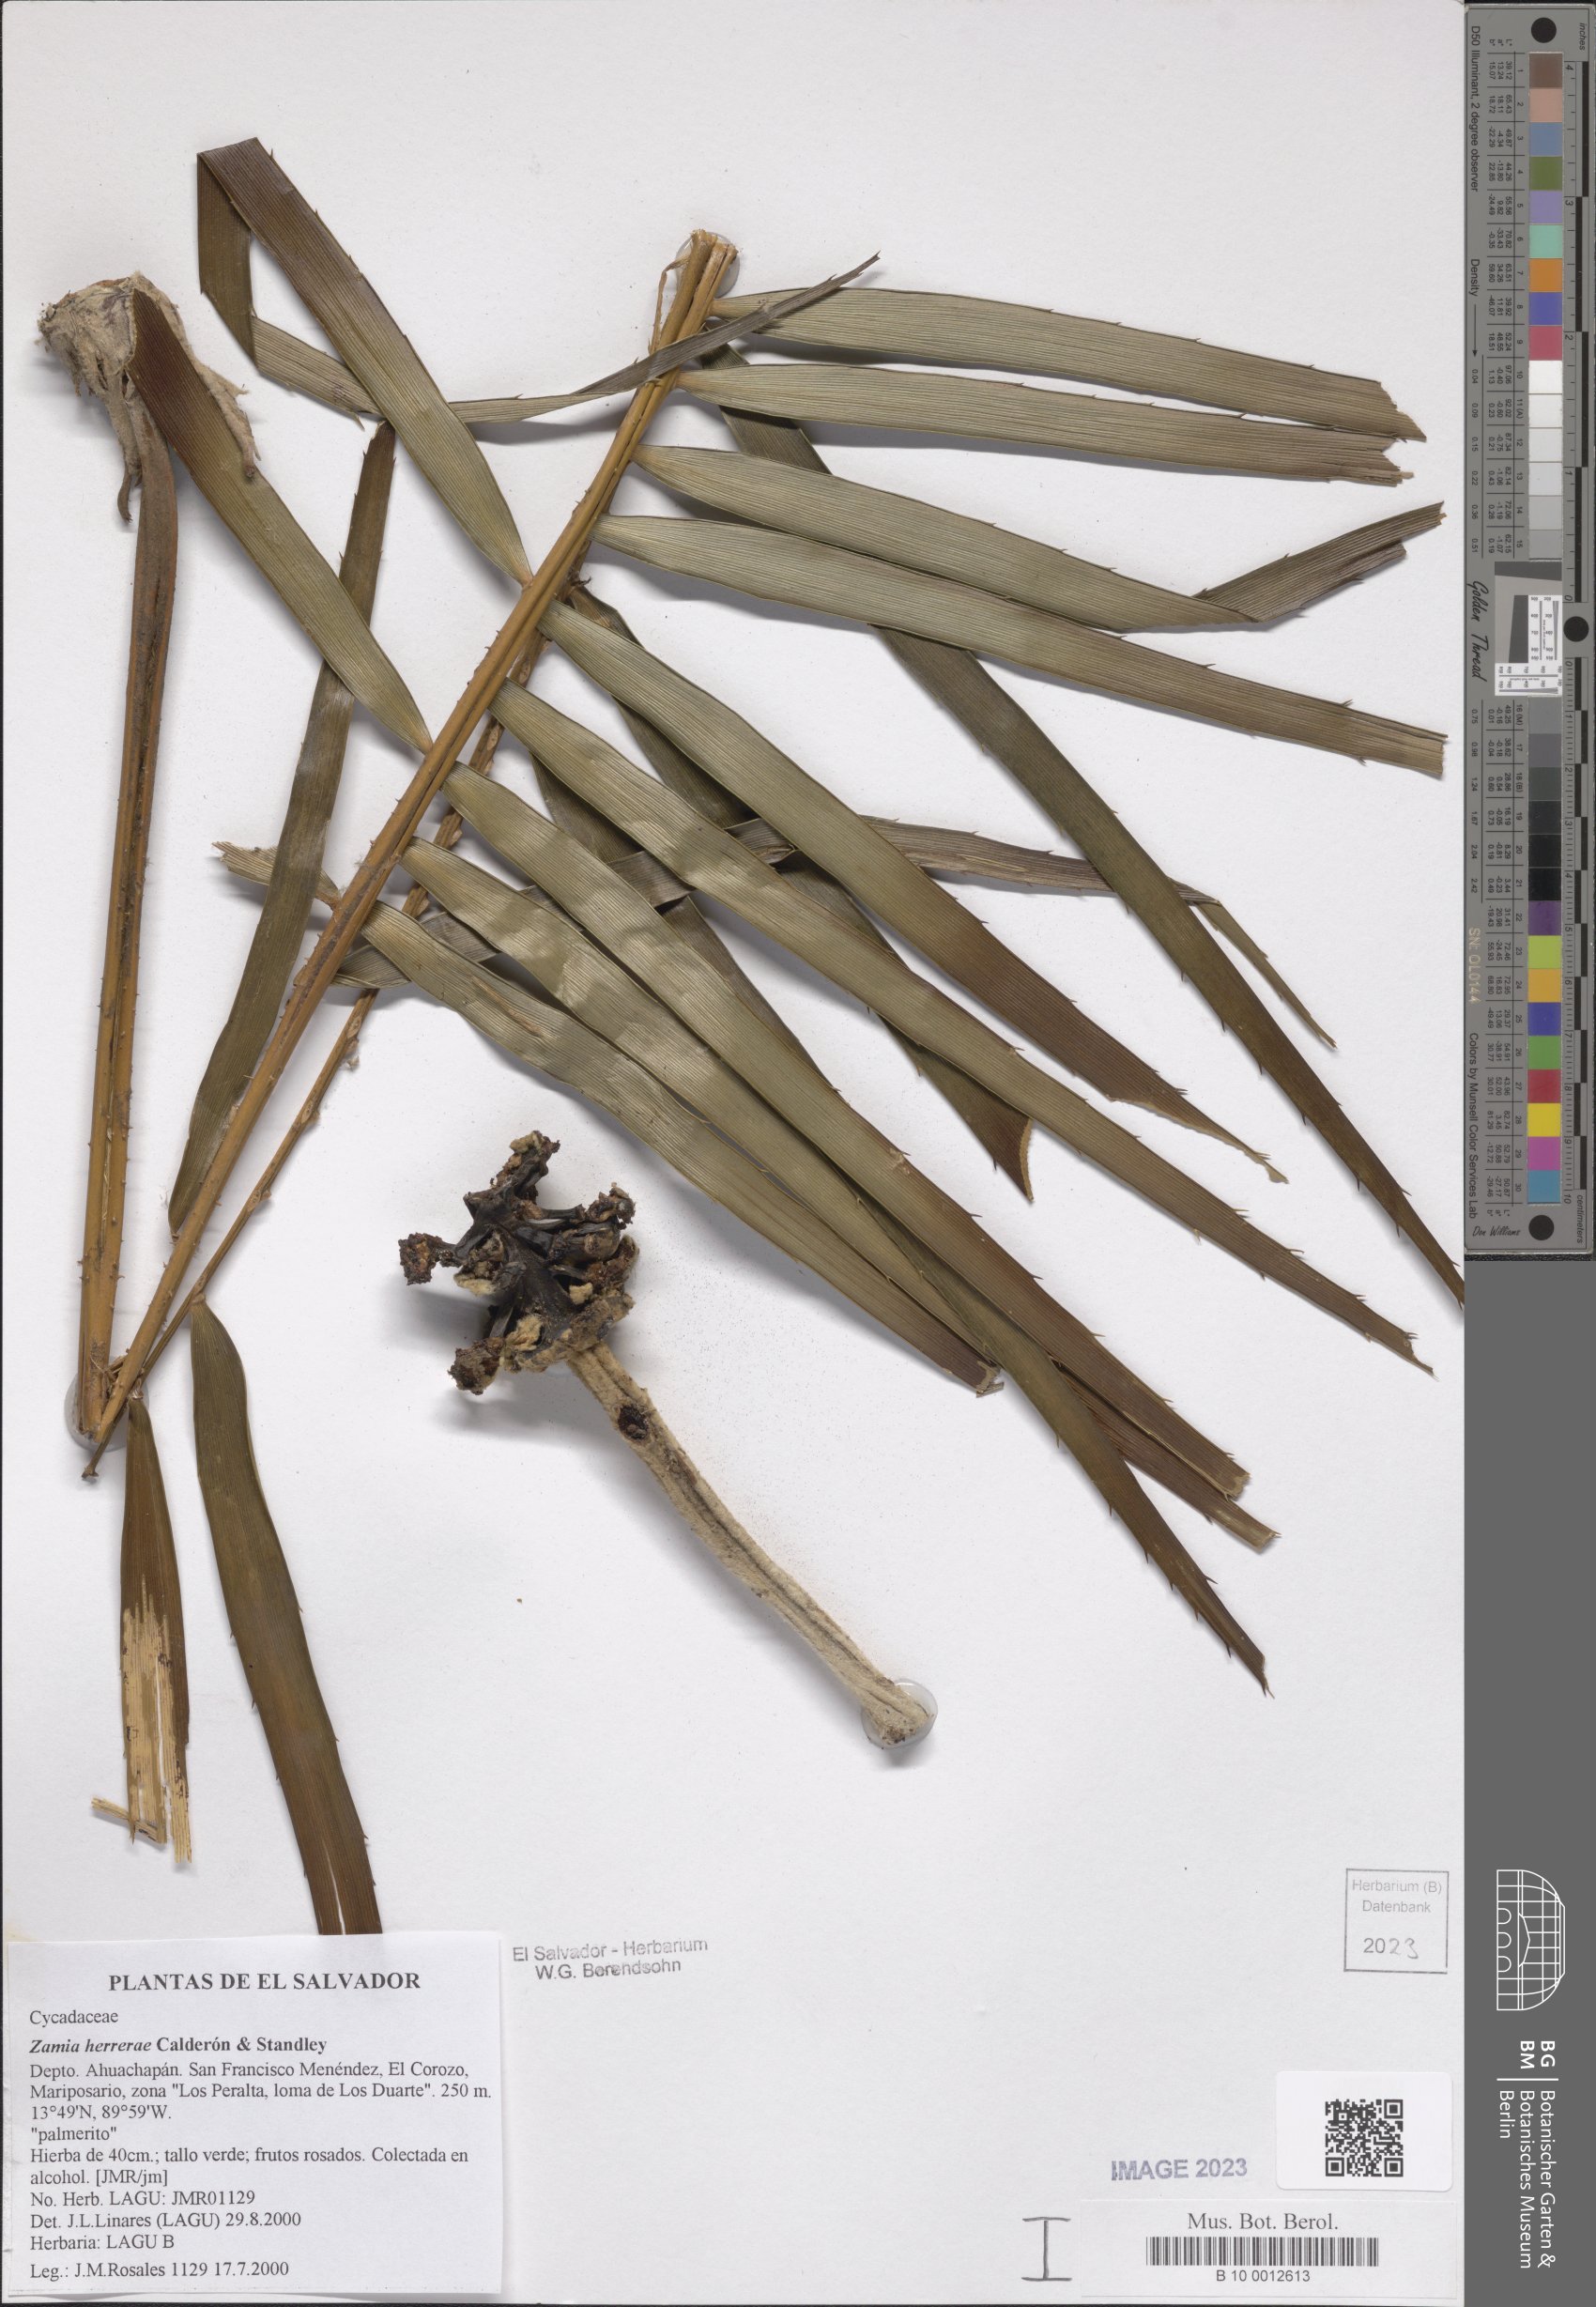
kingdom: Plantae
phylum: Tracheophyta
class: Cycadopsida
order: Cycadales
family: Zamiaceae
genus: Zamia
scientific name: Zamia herrerae
